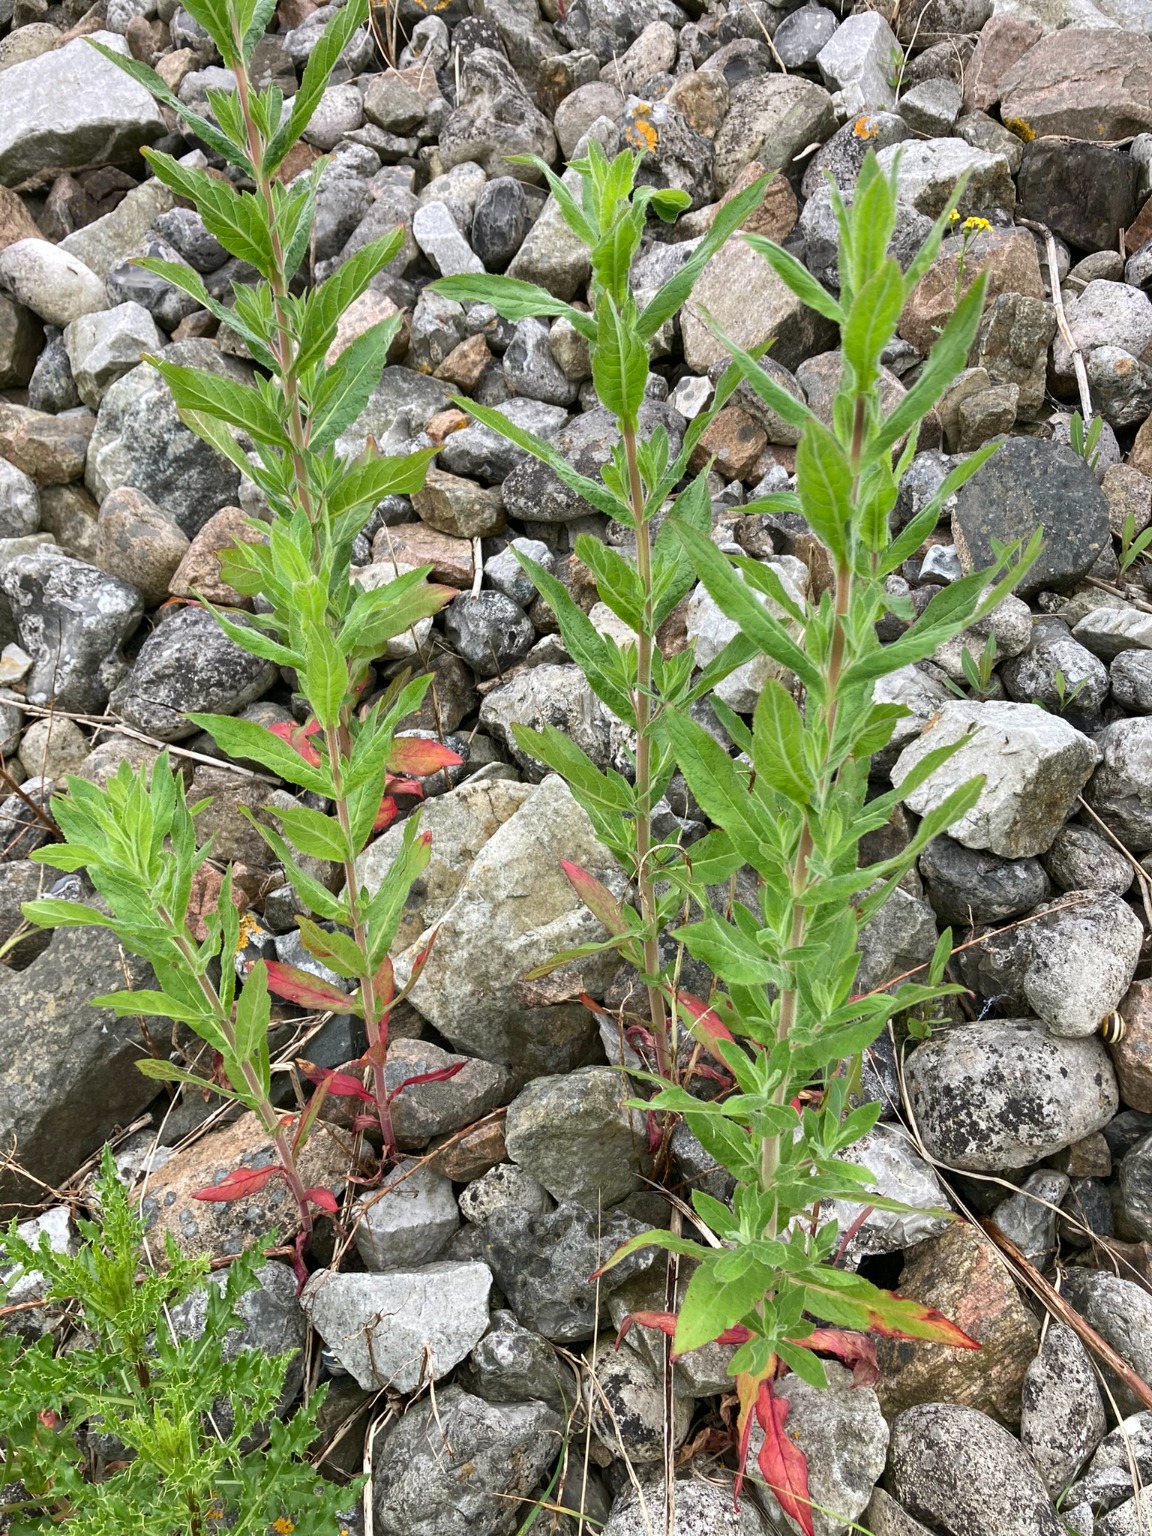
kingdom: Plantae
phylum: Tracheophyta
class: Magnoliopsida
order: Myrtales
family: Onagraceae
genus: Epilobium
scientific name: Epilobium hirsutum
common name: Lådden dueurt
